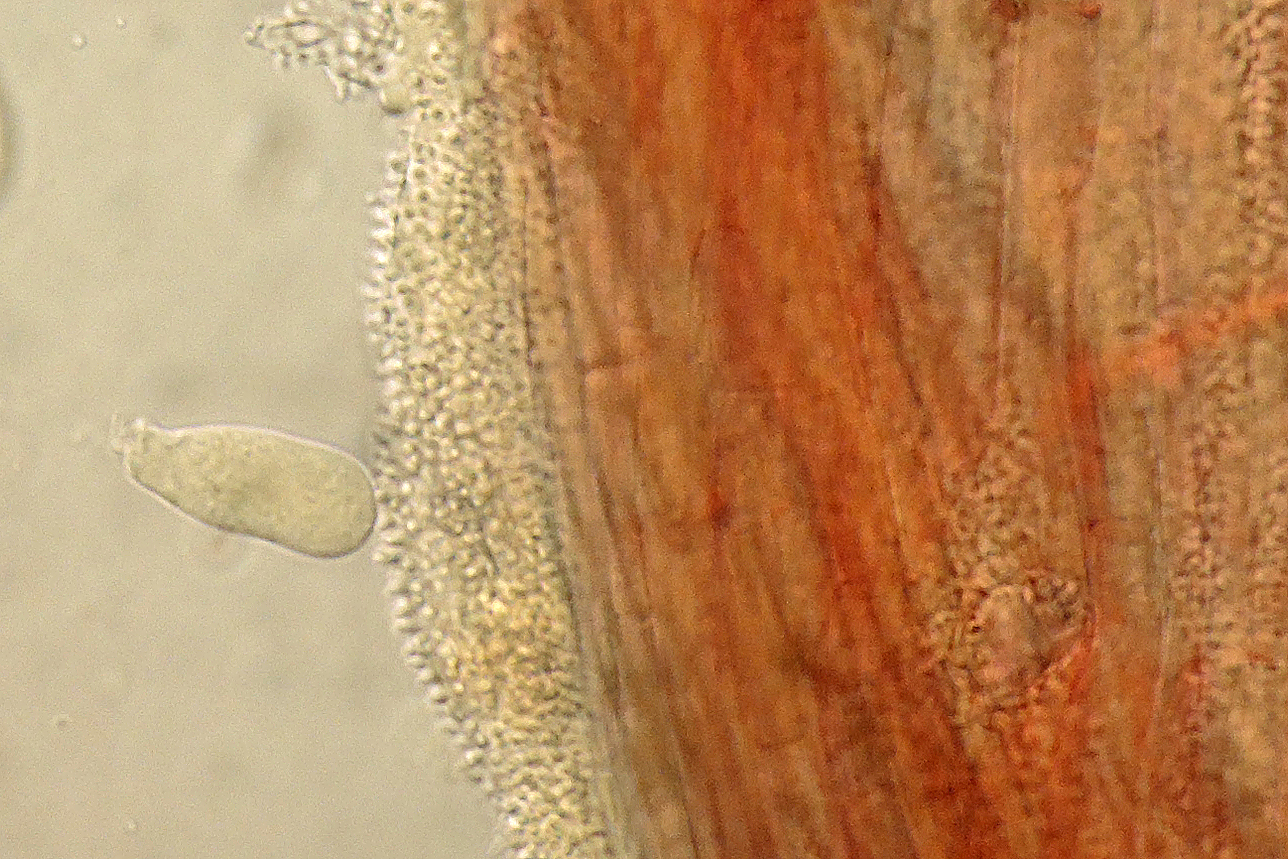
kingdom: Fungi
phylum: Basidiomycota
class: Agaricomycetes
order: Agaricales
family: Mycenaceae
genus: Hemimycena
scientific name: Hemimycena
